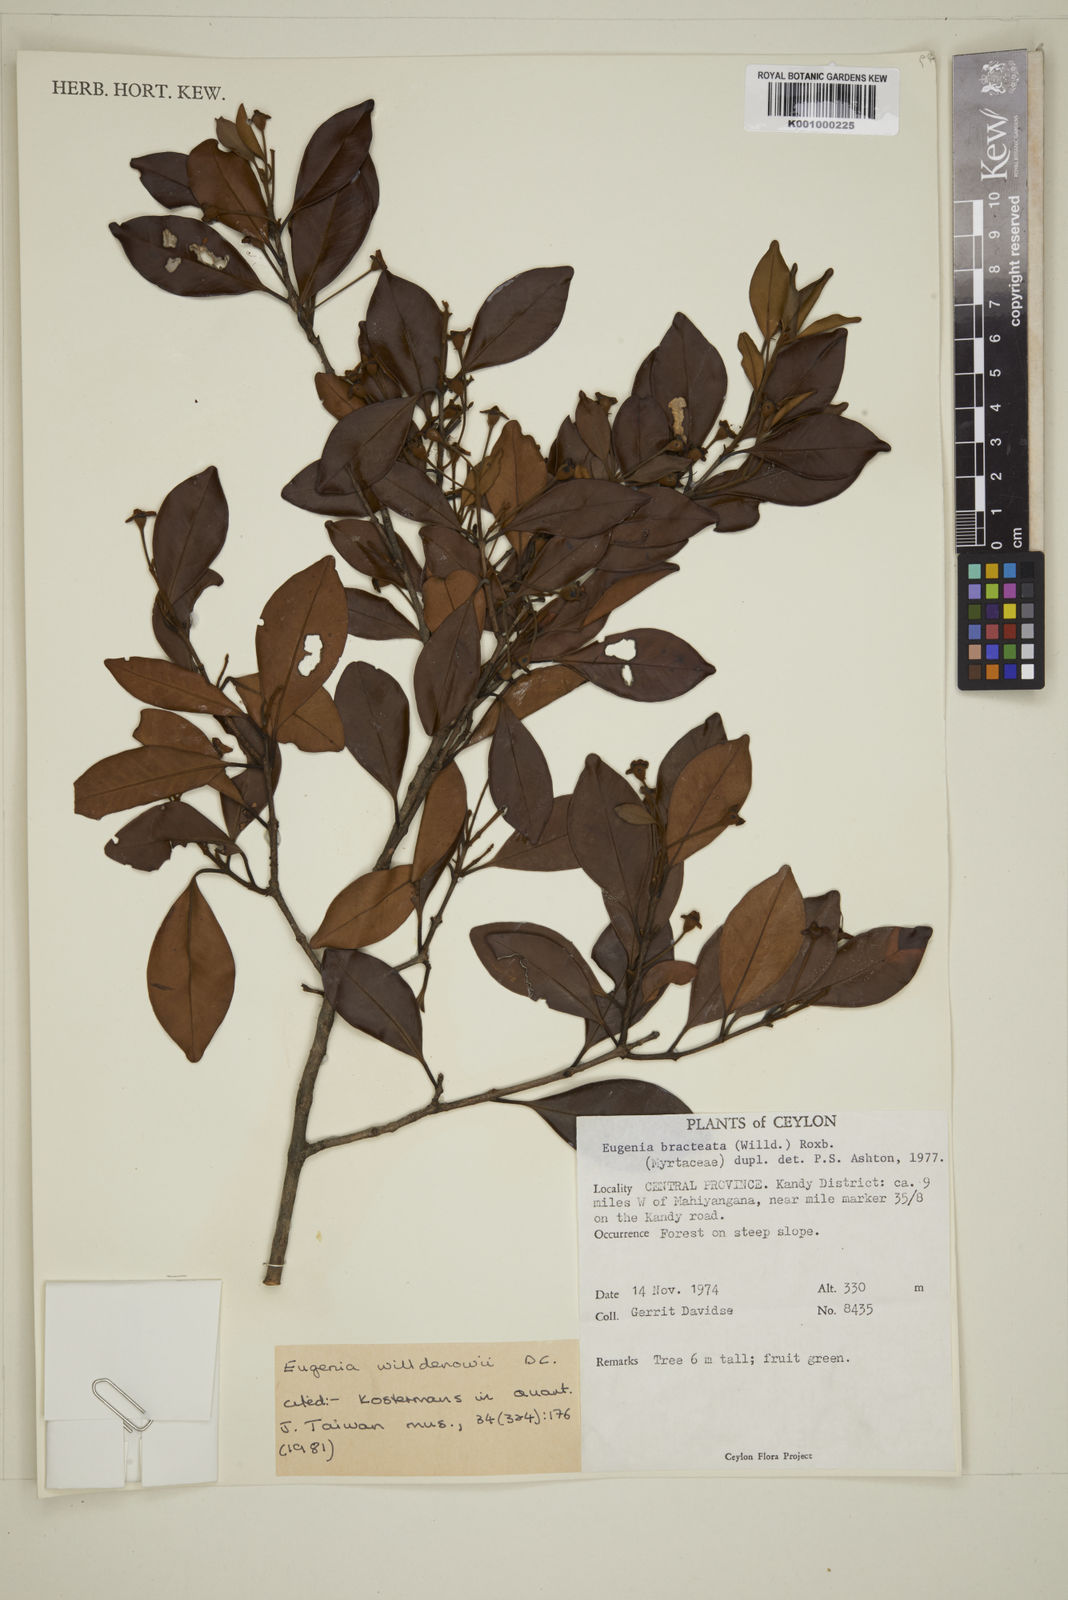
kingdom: Plantae
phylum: Tracheophyta
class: Magnoliopsida
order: Myrtales
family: Myrtaceae
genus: Eugenia
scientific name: Eugenia pseudopsidium
